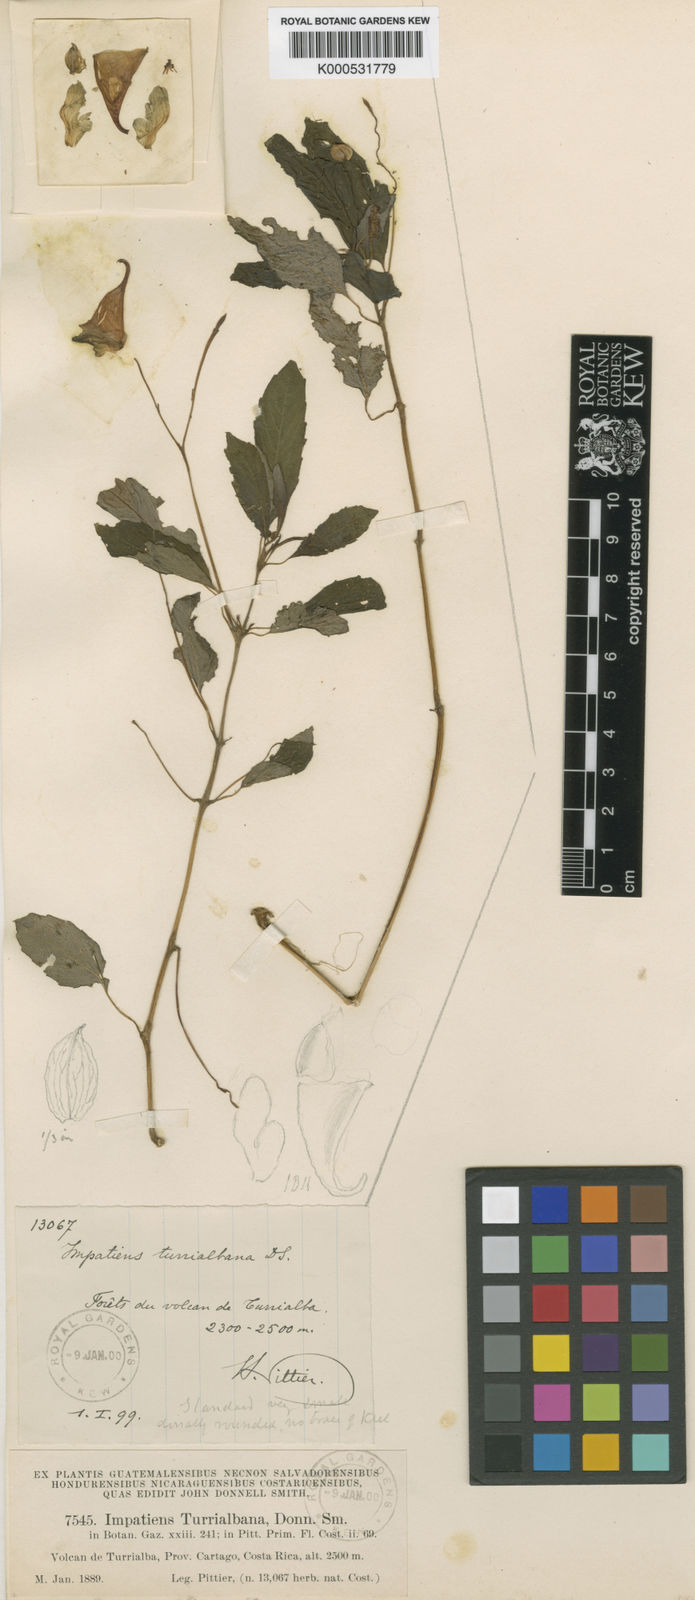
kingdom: Plantae
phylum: Tracheophyta
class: Magnoliopsida
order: Ericales
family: Balsaminaceae
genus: Impatiens
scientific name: Impatiens turrialbana
